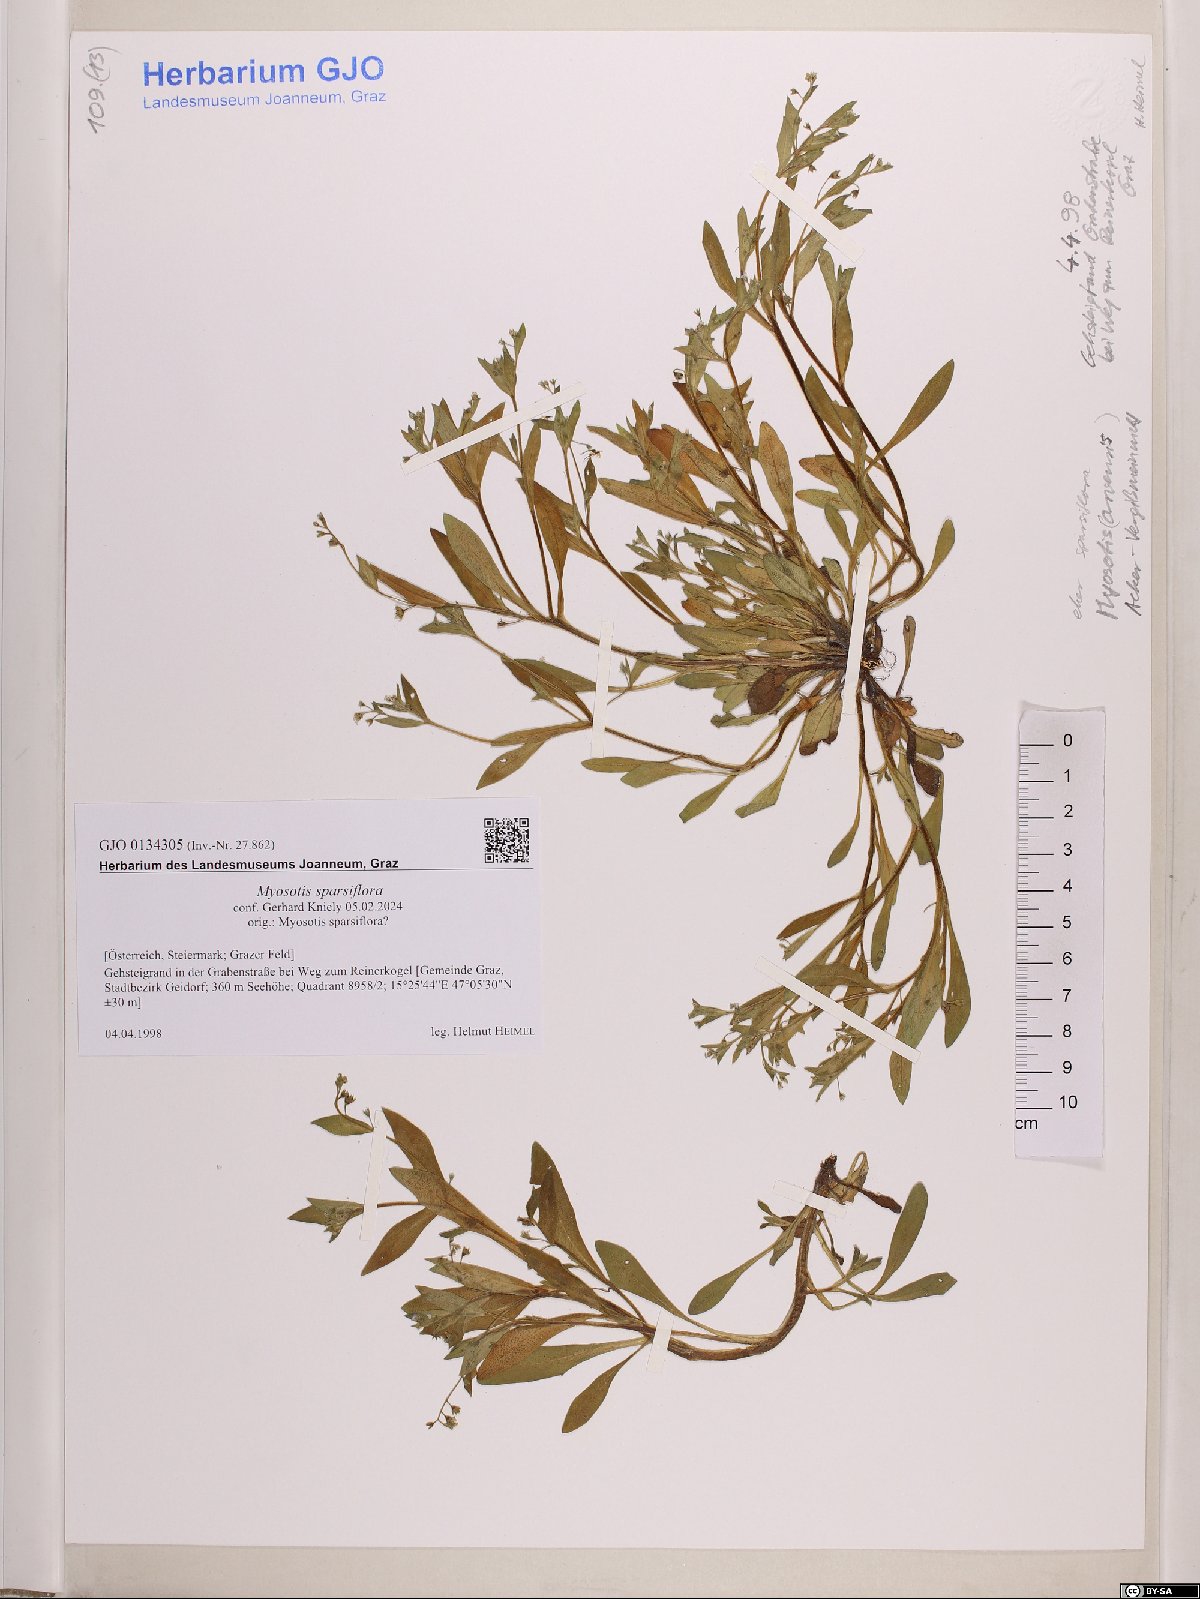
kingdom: Plantae
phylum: Tracheophyta
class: Magnoliopsida
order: Boraginales
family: Boraginaceae
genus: Myosotis
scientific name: Myosotis sparsiflora
